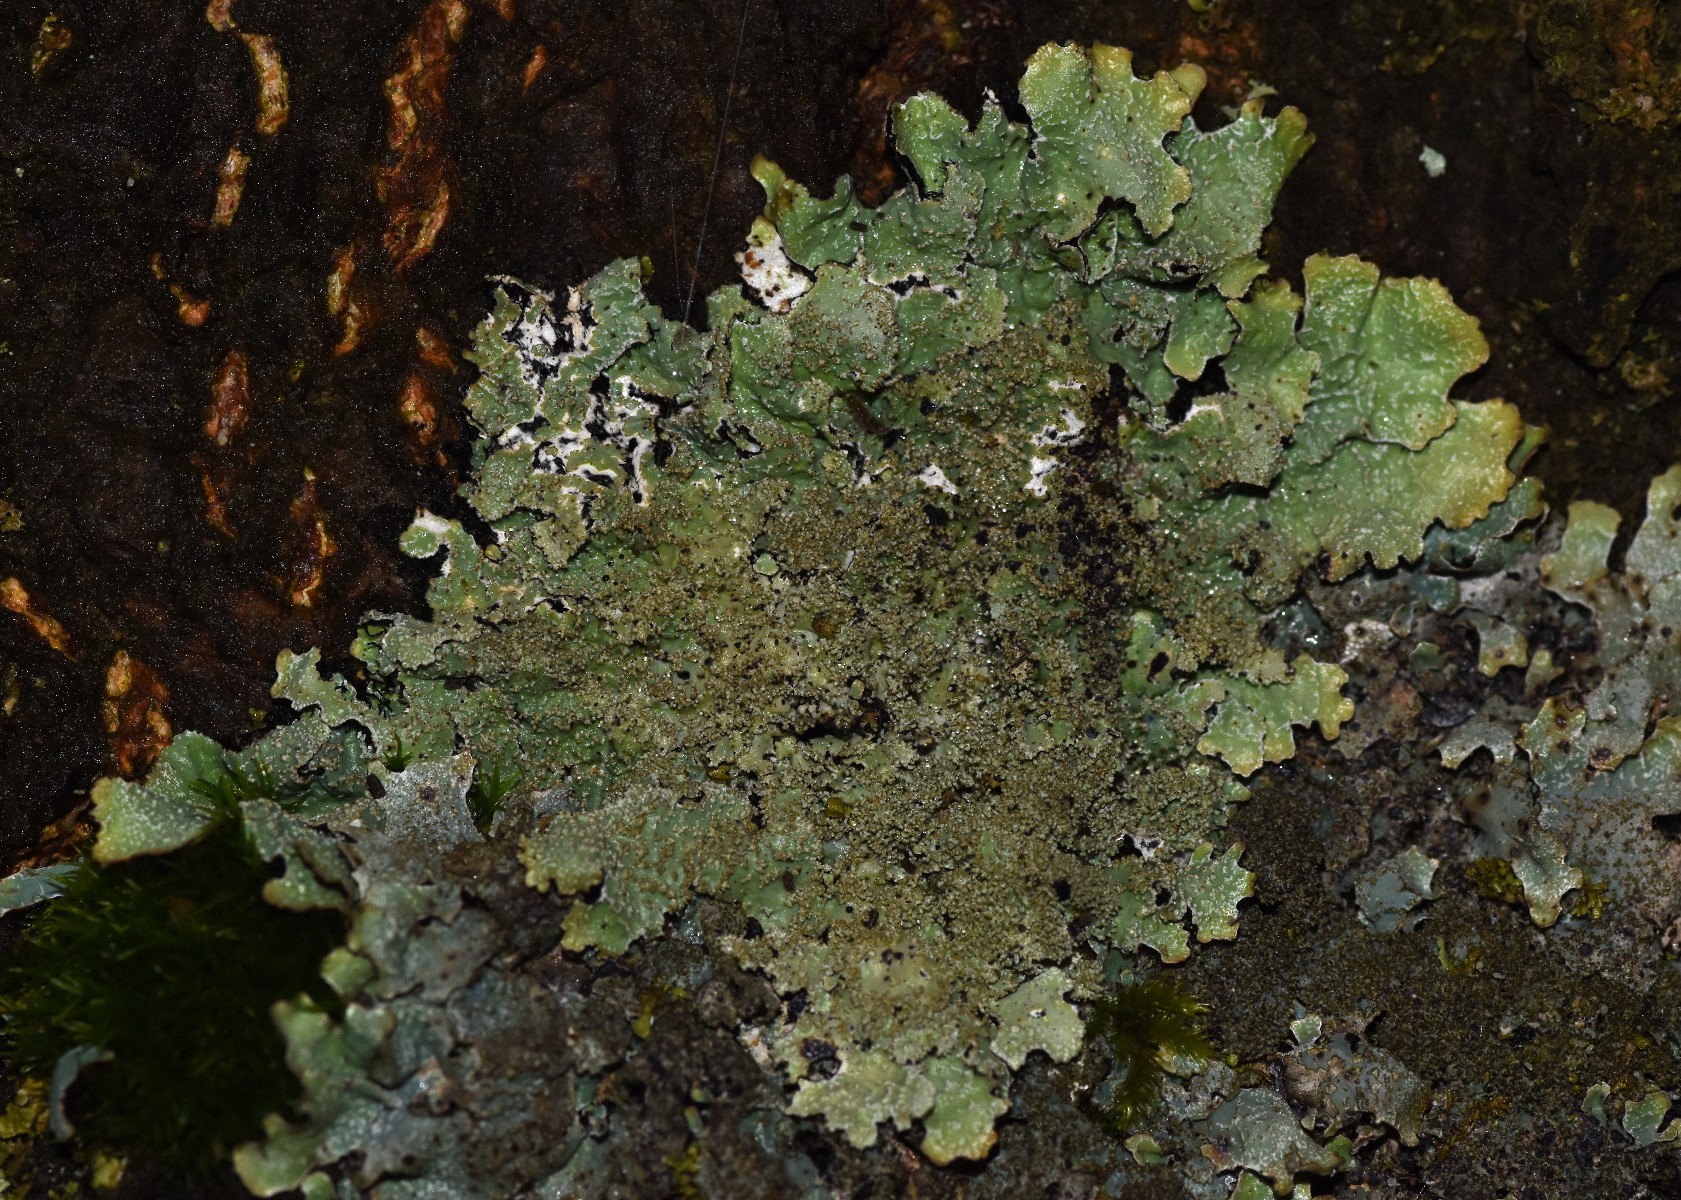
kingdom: Fungi
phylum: Ascomycota
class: Lecanoromycetes
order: Lecanorales
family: Parmeliaceae
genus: Parmelia
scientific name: Parmelia saxatilis
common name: farve-skållav
